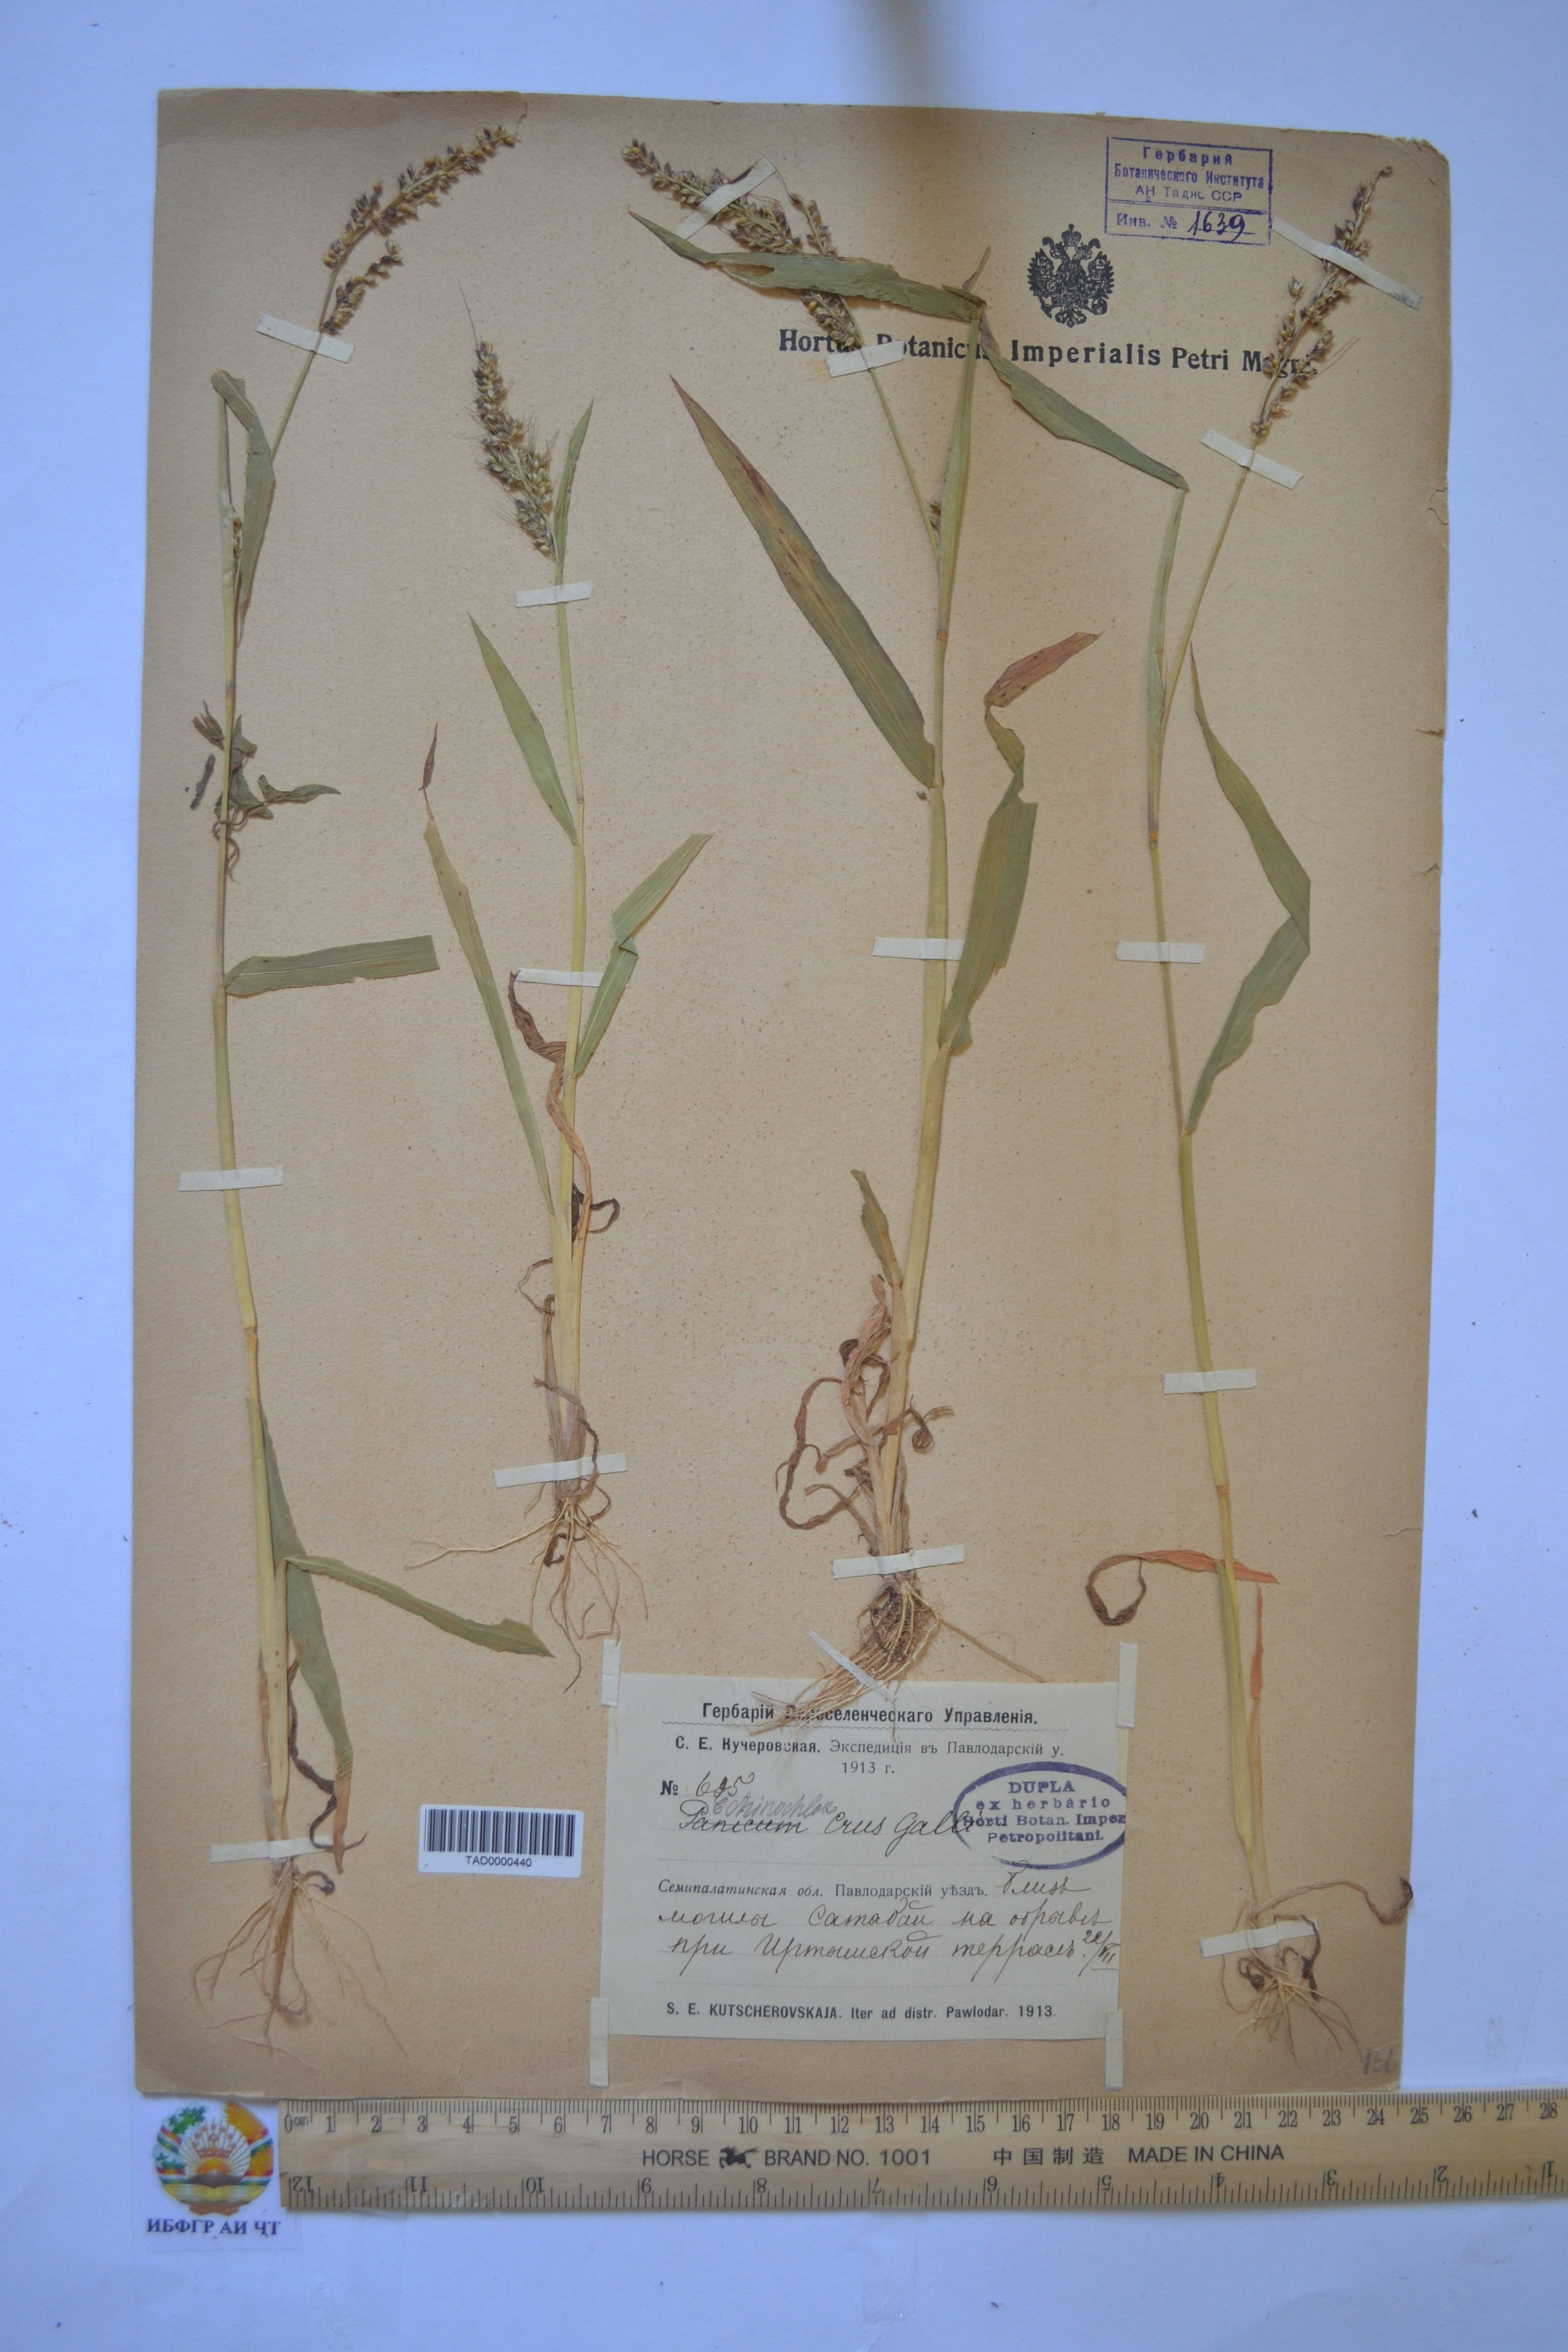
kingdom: Plantae
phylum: Tracheophyta
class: Liliopsida
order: Poales
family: Poaceae
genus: Echinochloa
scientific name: Echinochloa crus-galli
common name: Cockspur
